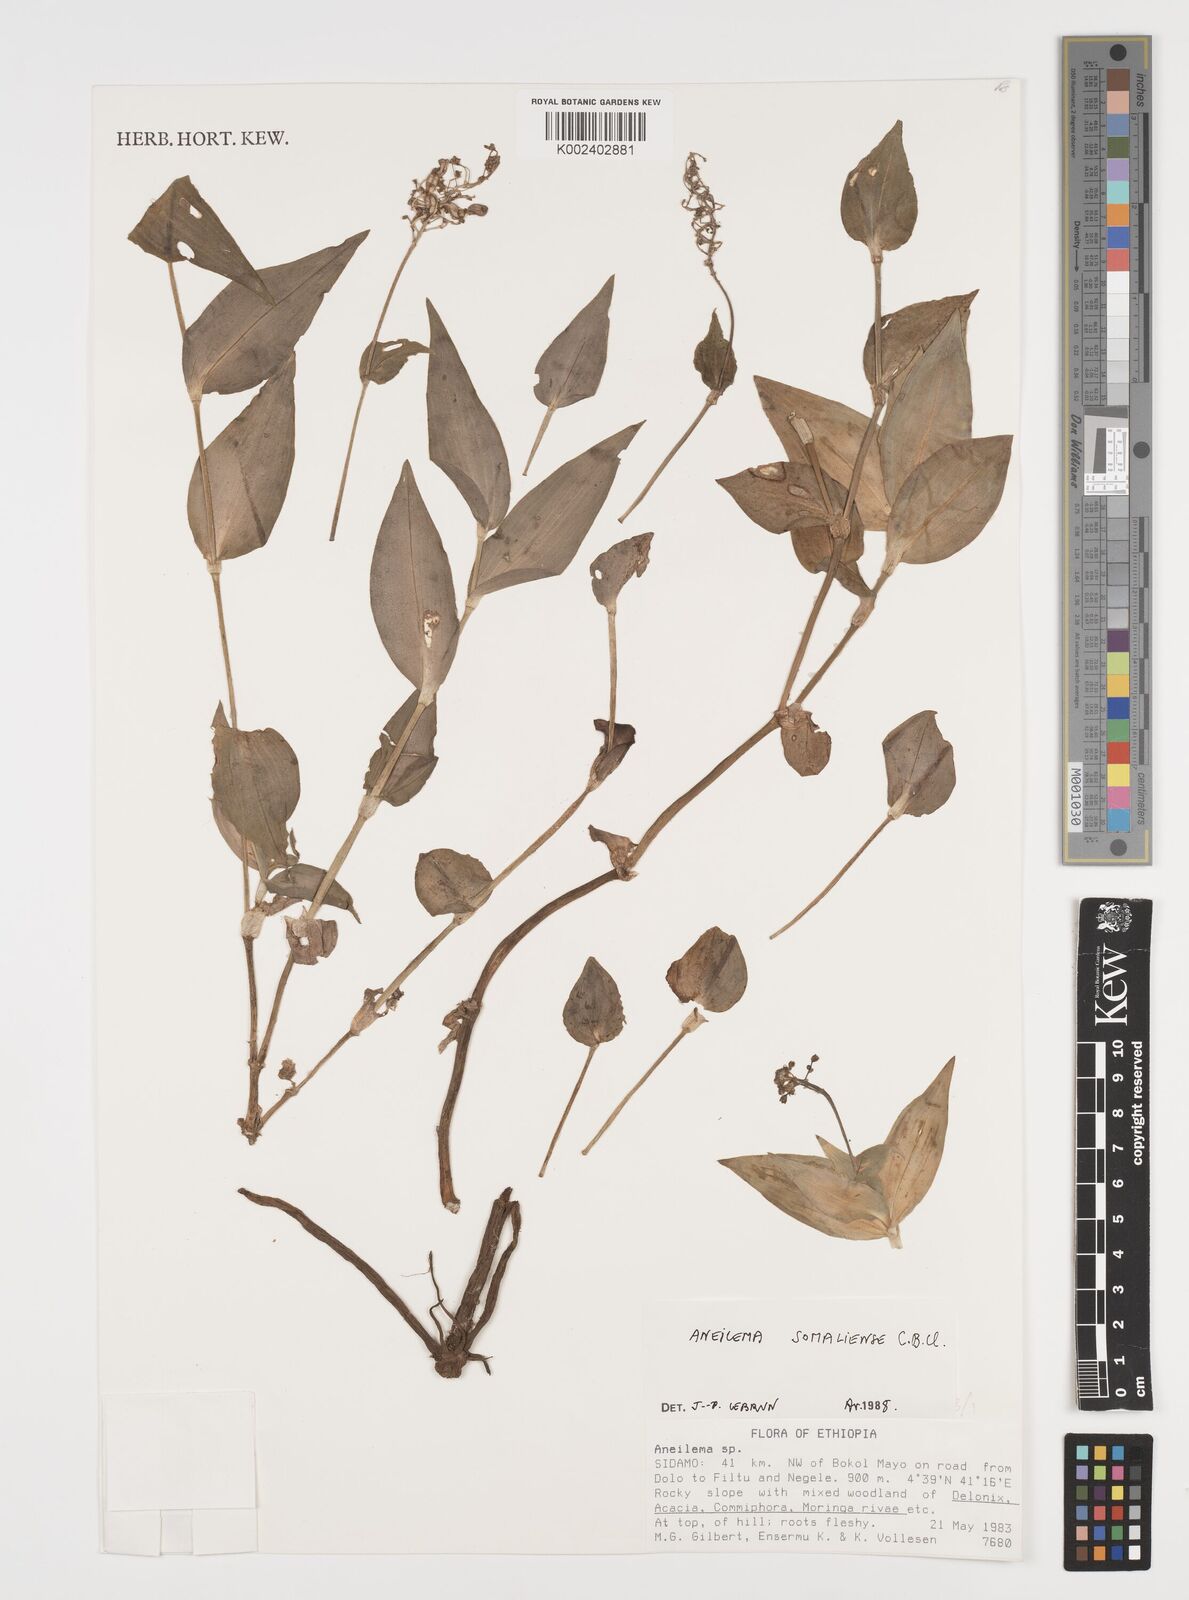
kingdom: Plantae
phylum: Tracheophyta
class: Liliopsida
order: Commelinales
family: Commelinaceae
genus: Aneilema
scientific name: Aneilema somaliense
